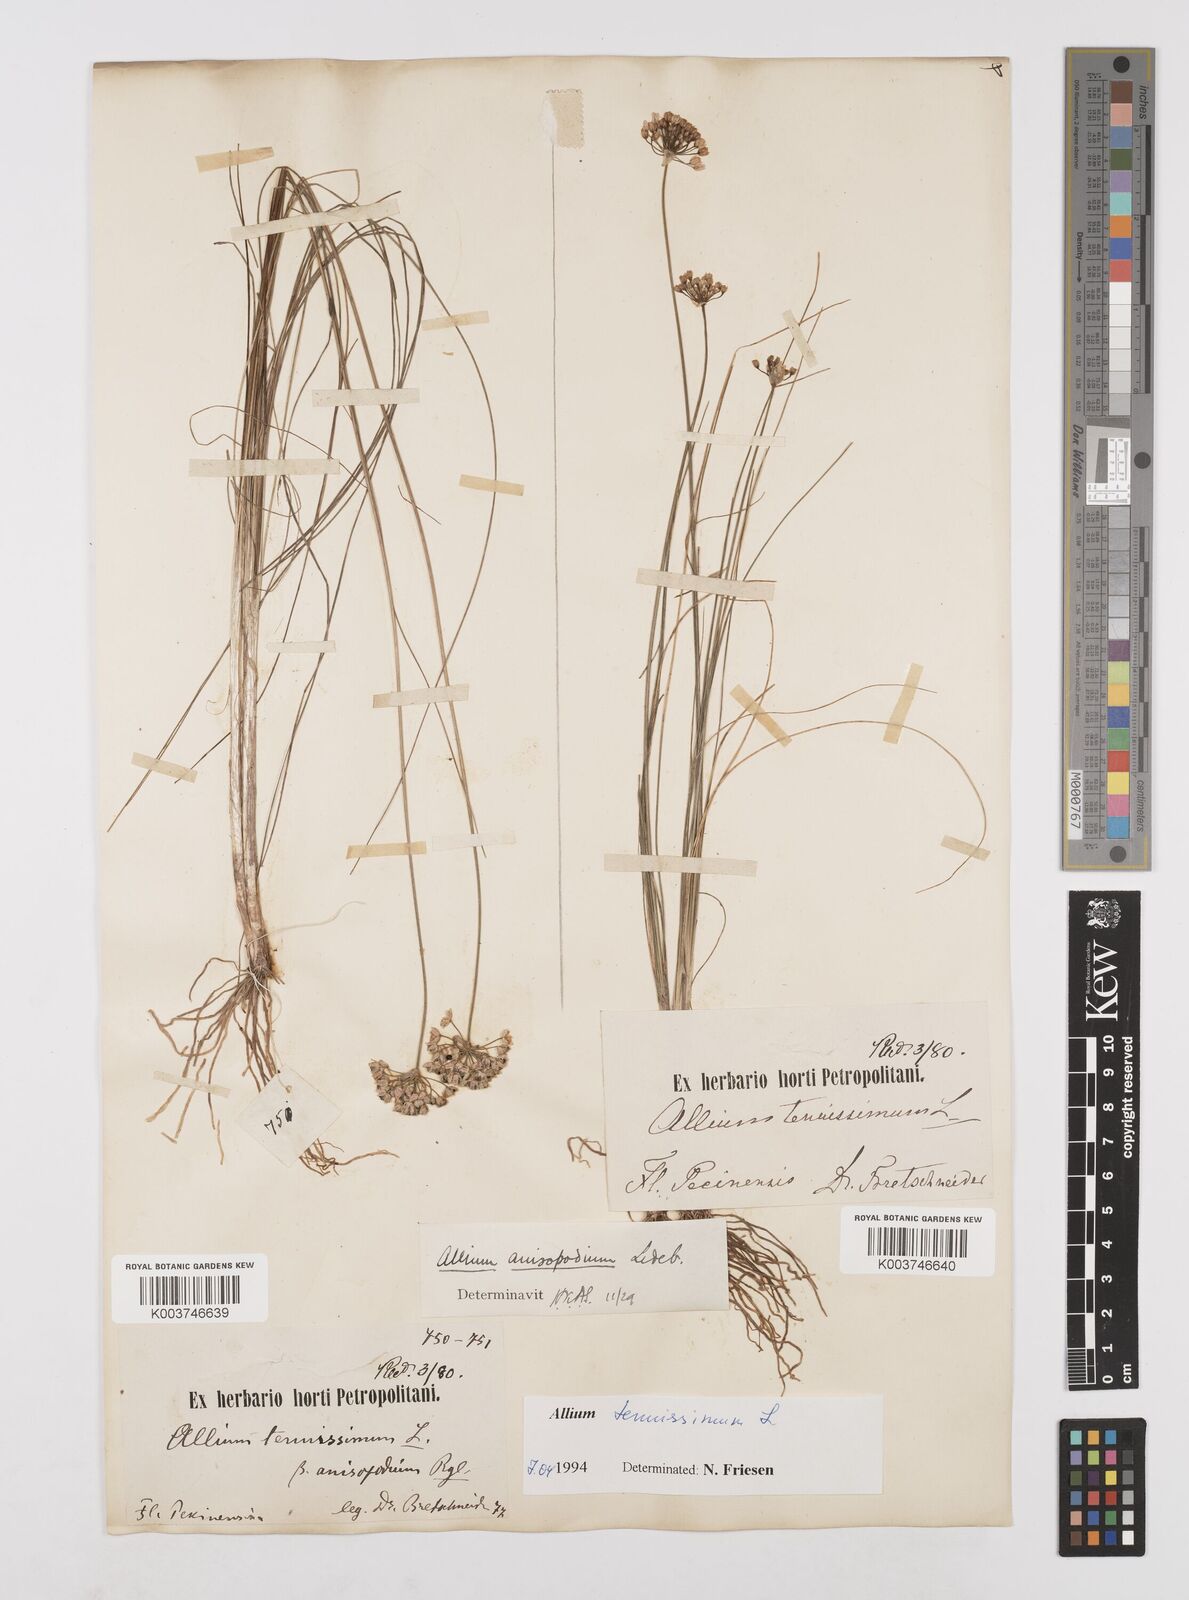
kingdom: Plantae
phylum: Tracheophyta
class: Liliopsida
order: Asparagales
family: Amaryllidaceae
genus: Allium
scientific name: Allium tenuissimum
